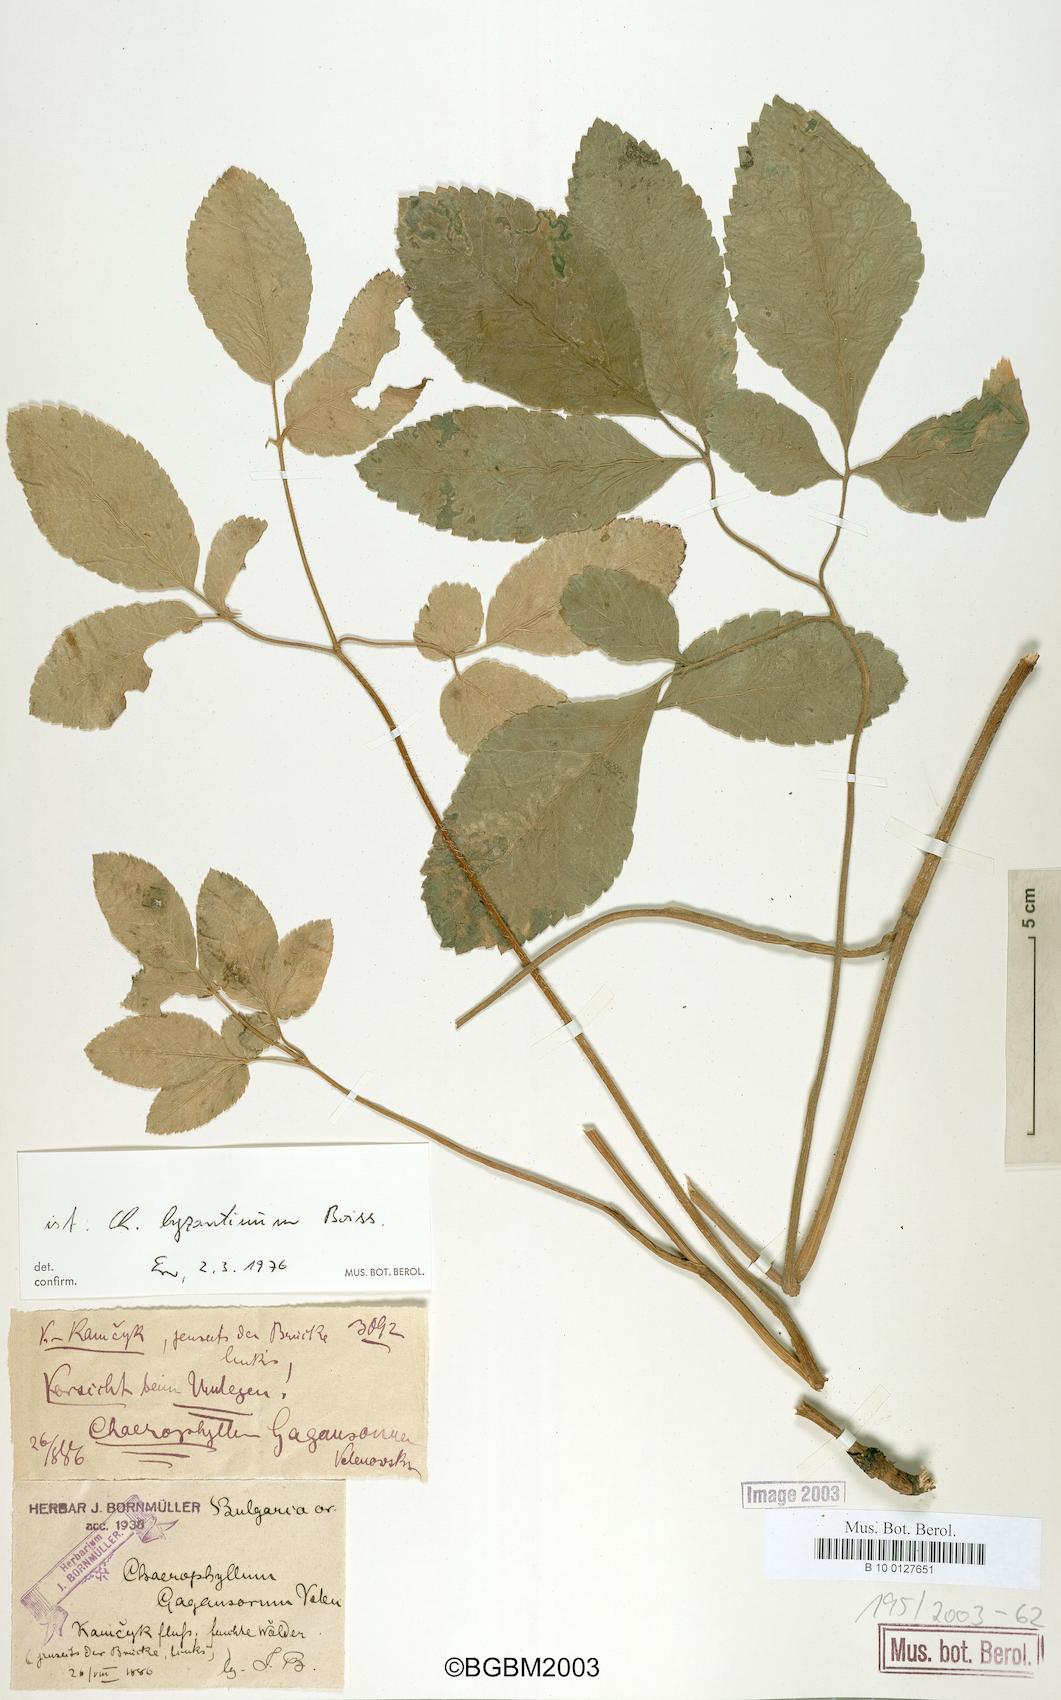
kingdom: Plantae
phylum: Tracheophyta
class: Magnoliopsida
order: Apiales
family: Apiaceae
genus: Chaerophyllum
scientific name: Chaerophyllum byzantinum
